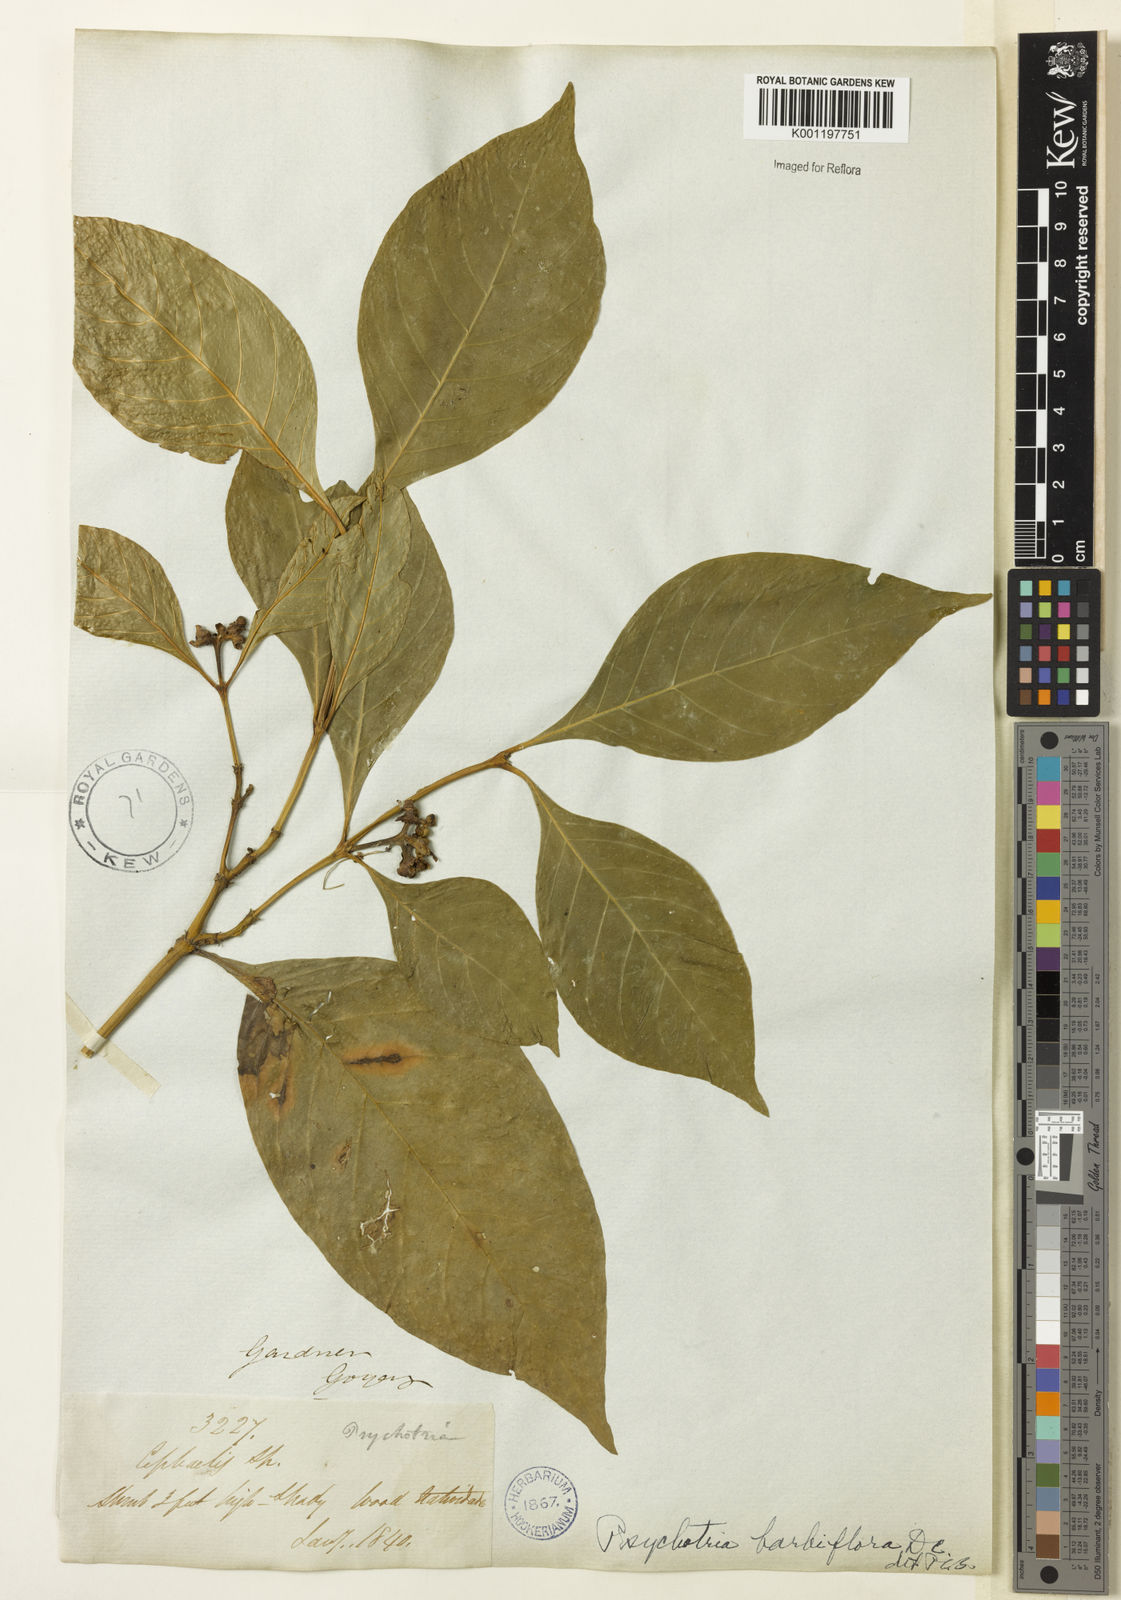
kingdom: Plantae
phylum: Tracheophyta
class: Magnoliopsida
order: Gentianales
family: Rubiaceae
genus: Palicourea
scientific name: Palicourea hoffmannseggiana
